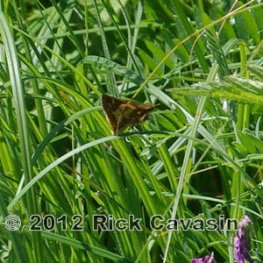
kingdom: Animalia
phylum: Arthropoda
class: Insecta
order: Lepidoptera
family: Hesperiidae
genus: Polites
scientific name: Polites coras
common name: Peck's Skipper
